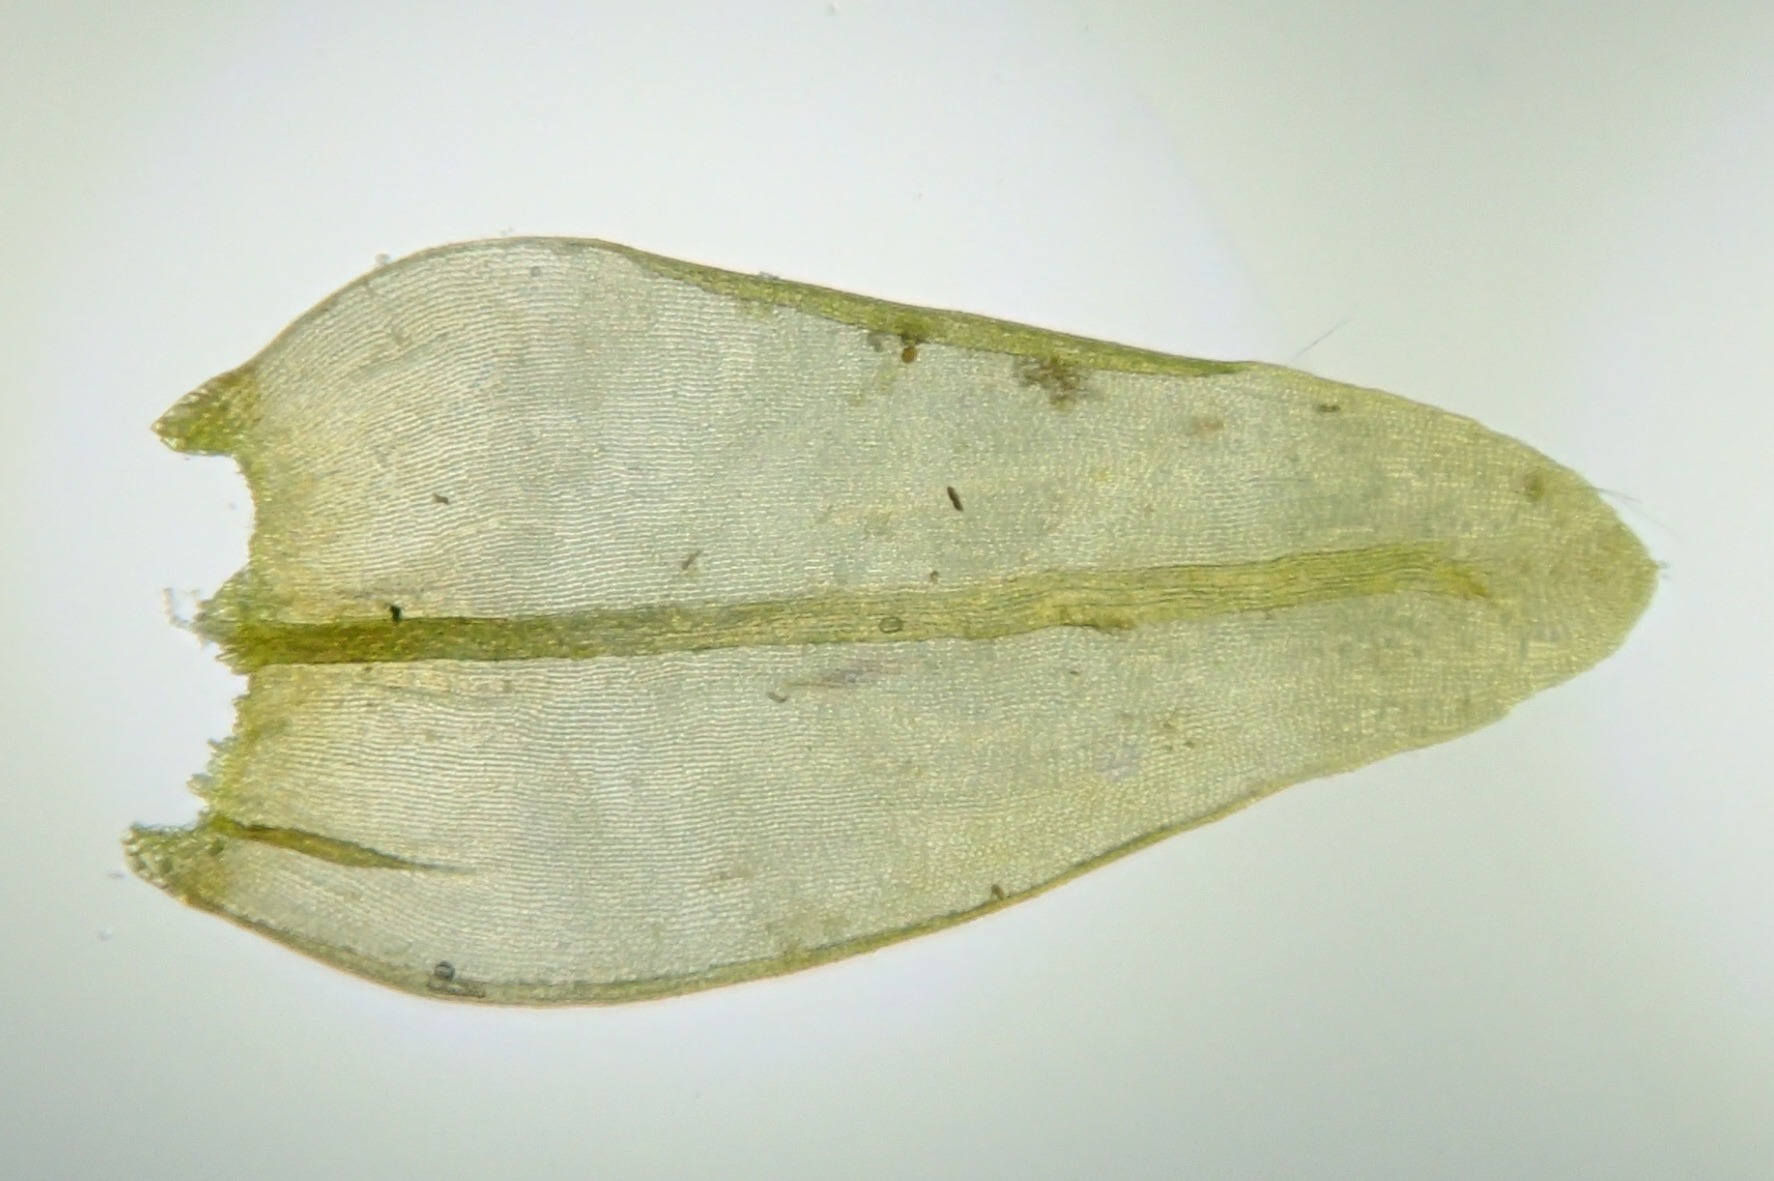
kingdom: Plantae
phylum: Bryophyta
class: Bryopsida
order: Grimmiales
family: Grimmiaceae
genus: Codriophorus
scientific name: Codriophorus acicularis
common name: Butbladet børstemos
